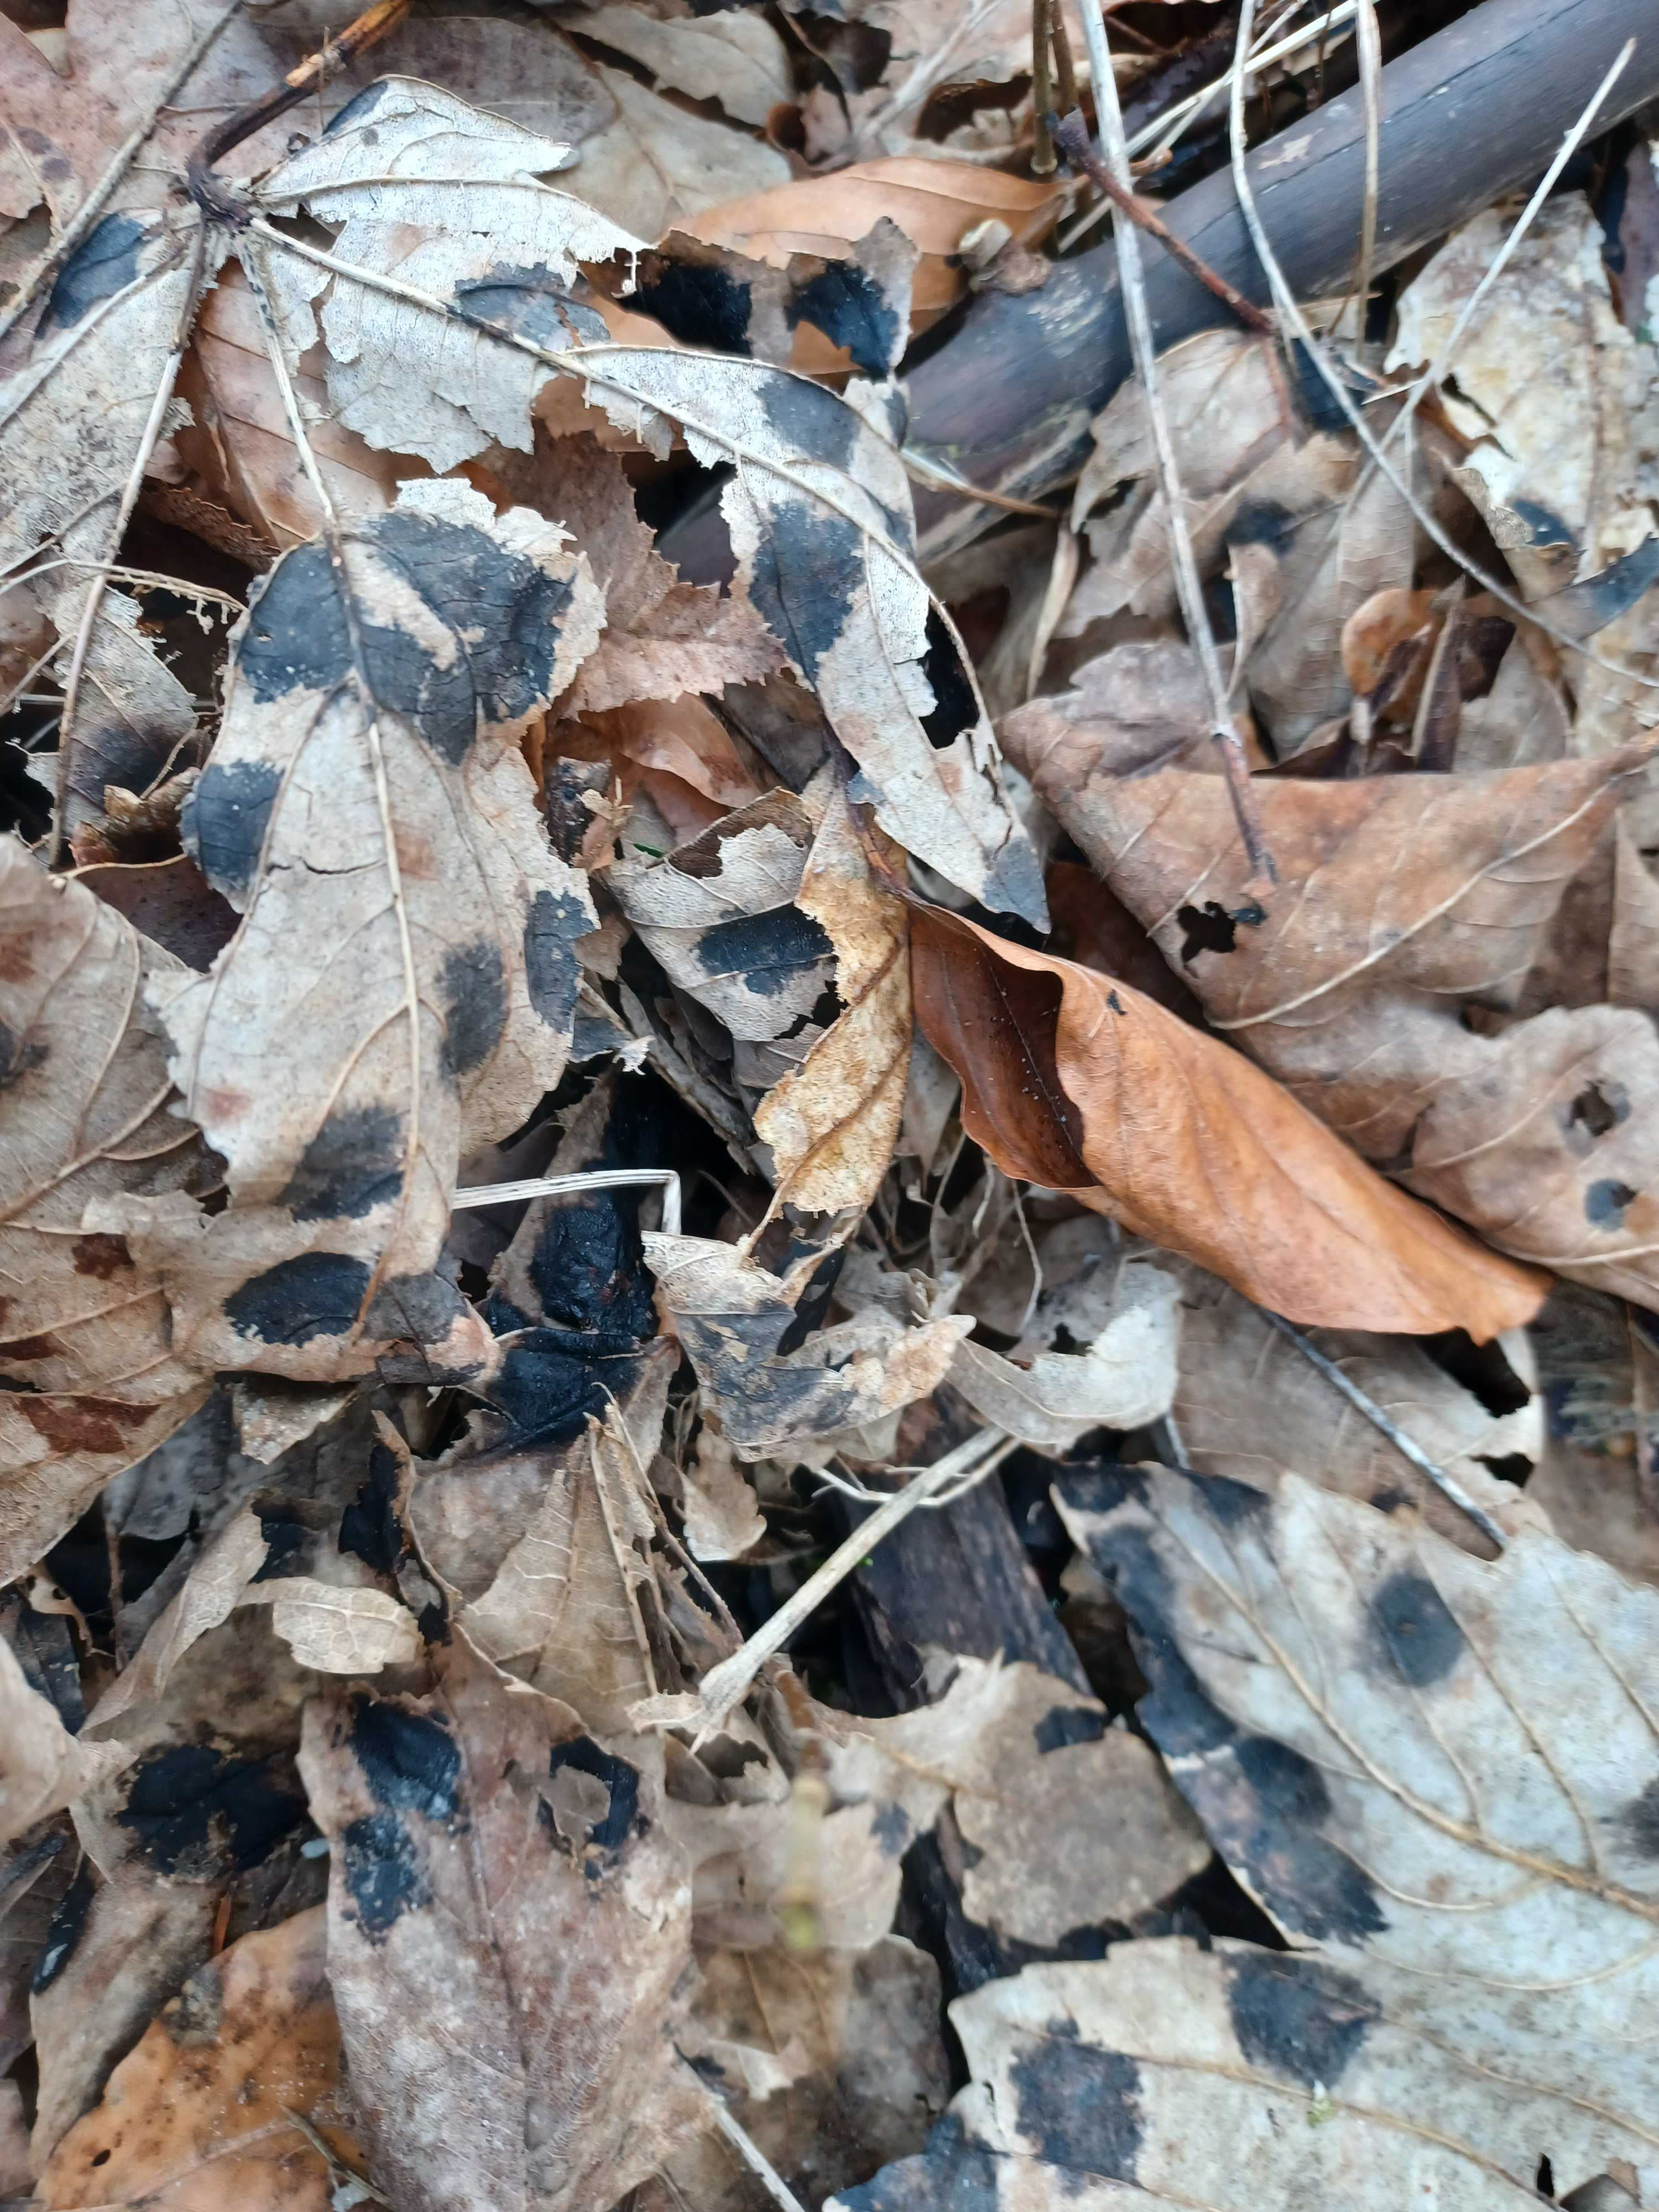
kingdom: Fungi
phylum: Ascomycota
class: Leotiomycetes
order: Rhytismatales
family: Rhytismataceae
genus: Rhytisma
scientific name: Rhytisma acerinum
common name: ahorn-rynkeplet
